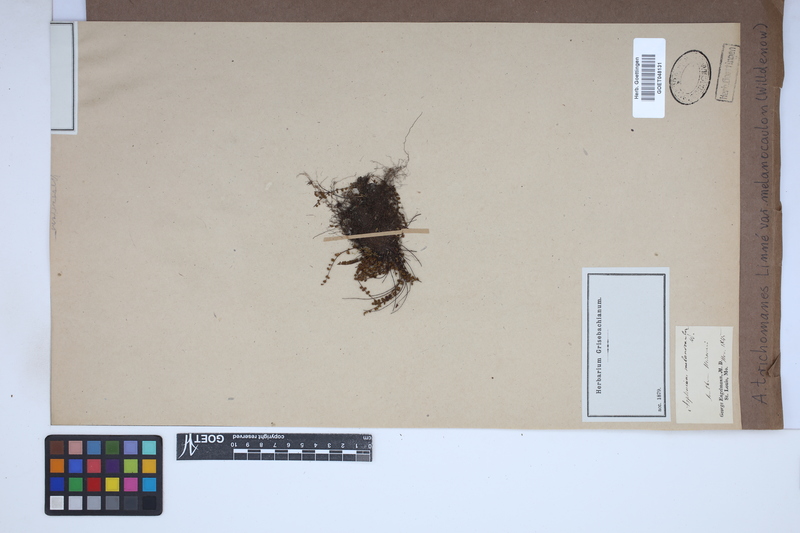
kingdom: Plantae
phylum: Tracheophyta
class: Polypodiopsida
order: Polypodiales
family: Aspleniaceae
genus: Asplenium
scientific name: Asplenium trichomanes
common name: Maidenhair spleenwort
